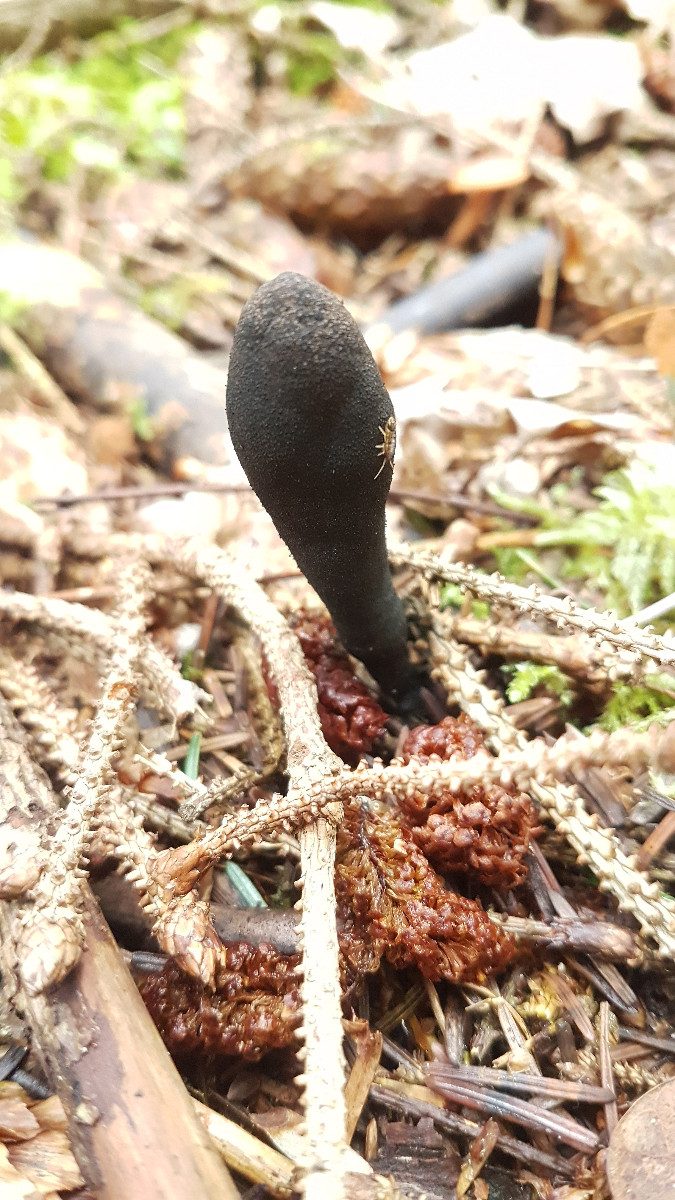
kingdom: Fungi
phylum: Ascomycota
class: Sordariomycetes
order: Xylariales
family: Xylariaceae
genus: Xylaria
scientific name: Xylaria
